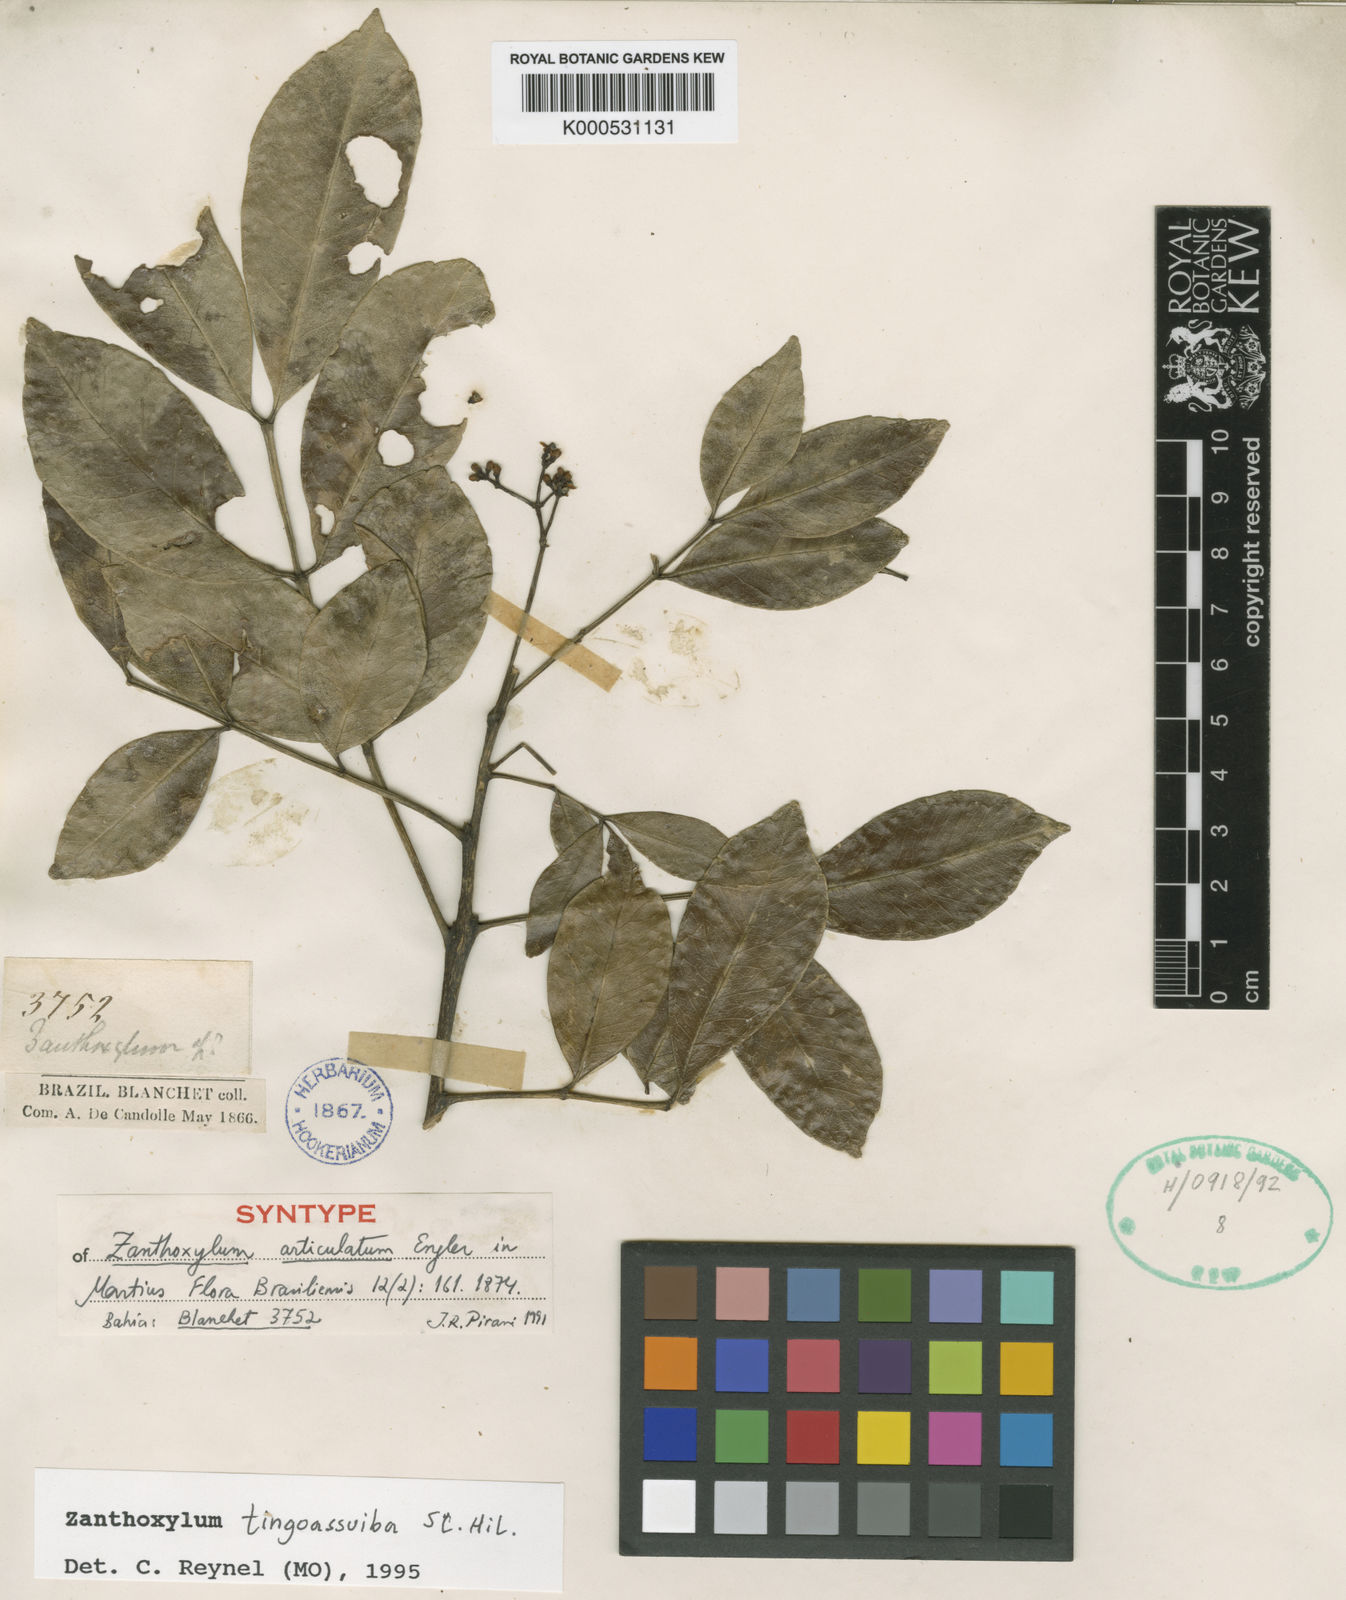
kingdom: Plantae
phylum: Tracheophyta
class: Magnoliopsida
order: Sapindales
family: Rutaceae
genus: Zanthoxylum
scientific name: Zanthoxylum tingoassuiba
